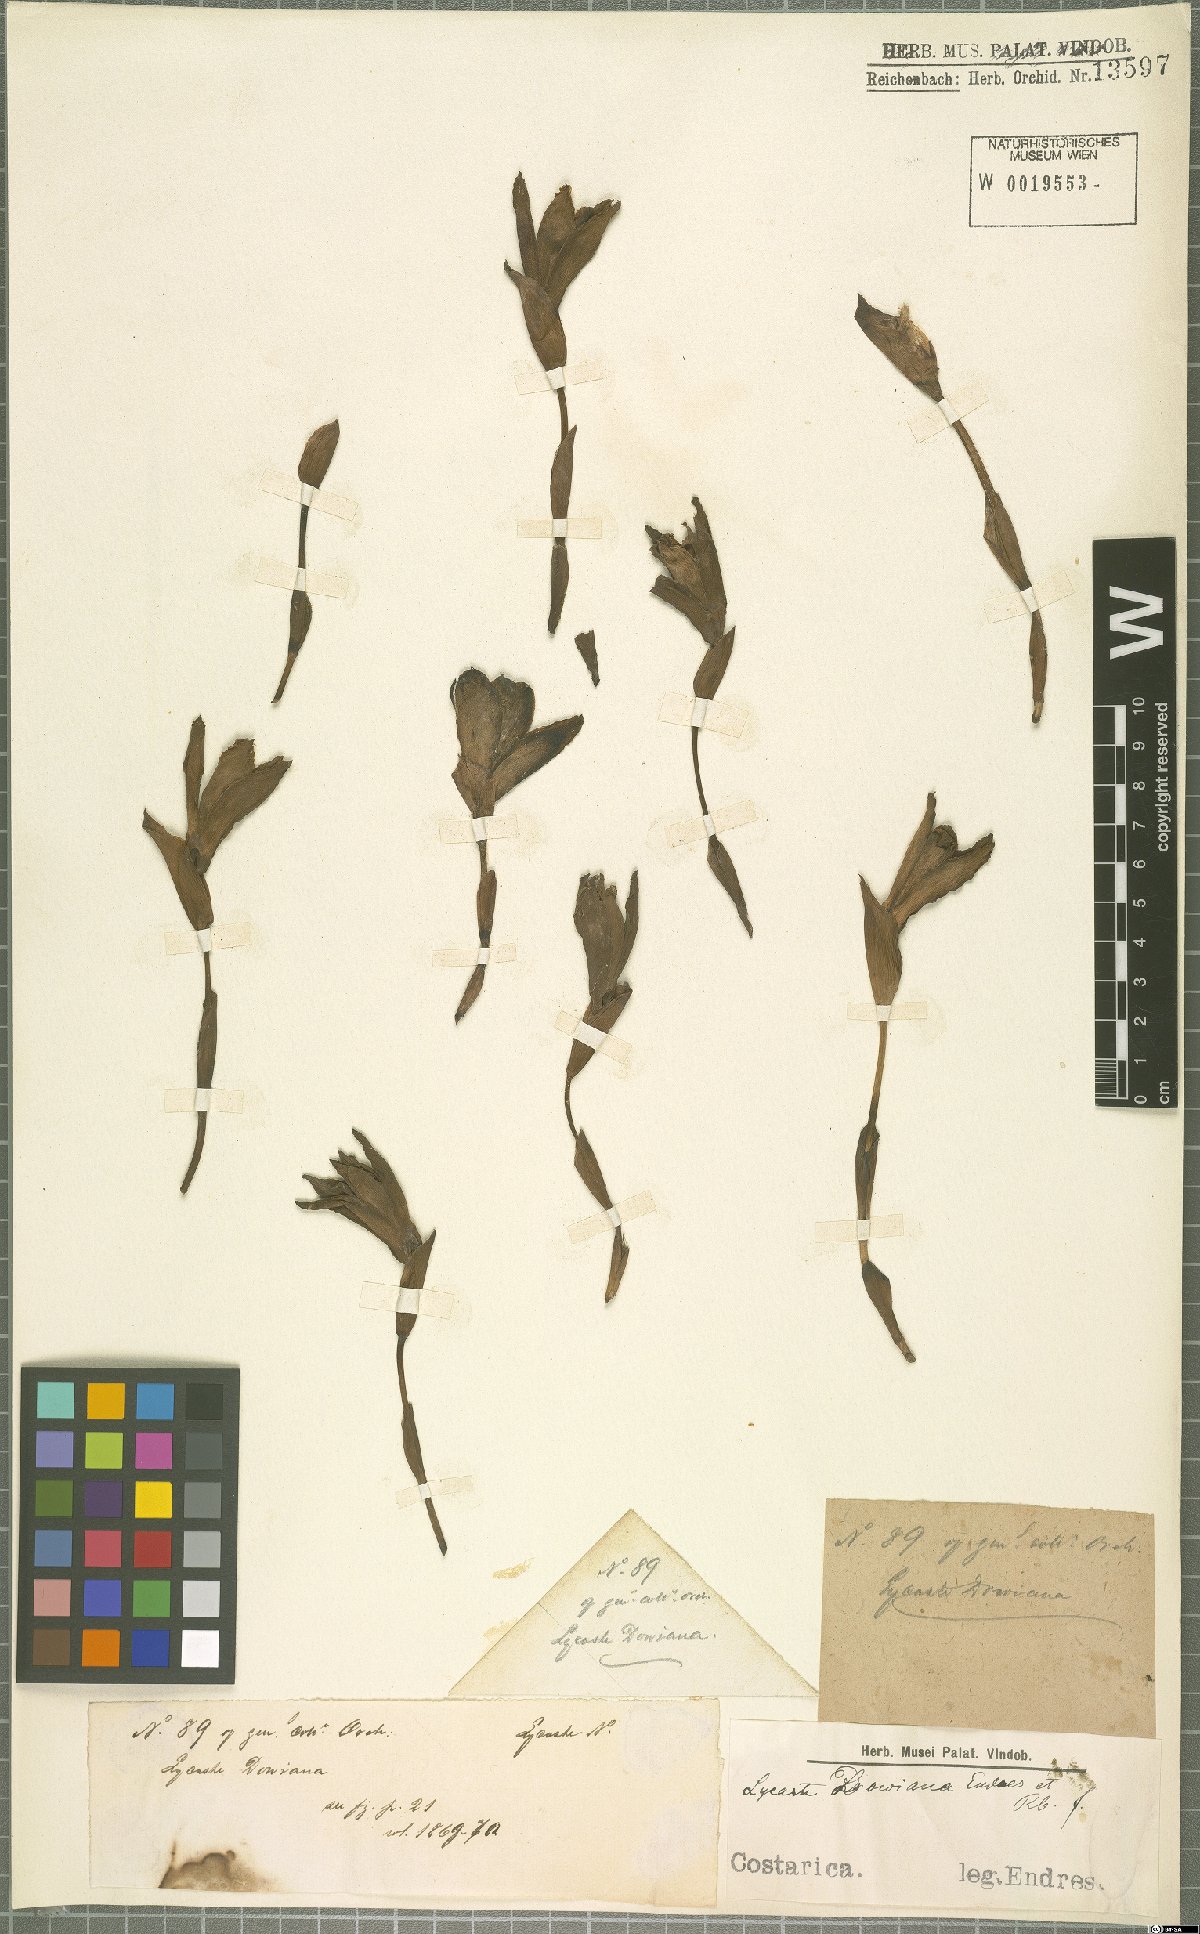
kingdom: Plantae
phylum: Tracheophyta
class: Liliopsida
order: Asparagales
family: Orchidaceae
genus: Lycaste
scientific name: Lycaste dowiana
